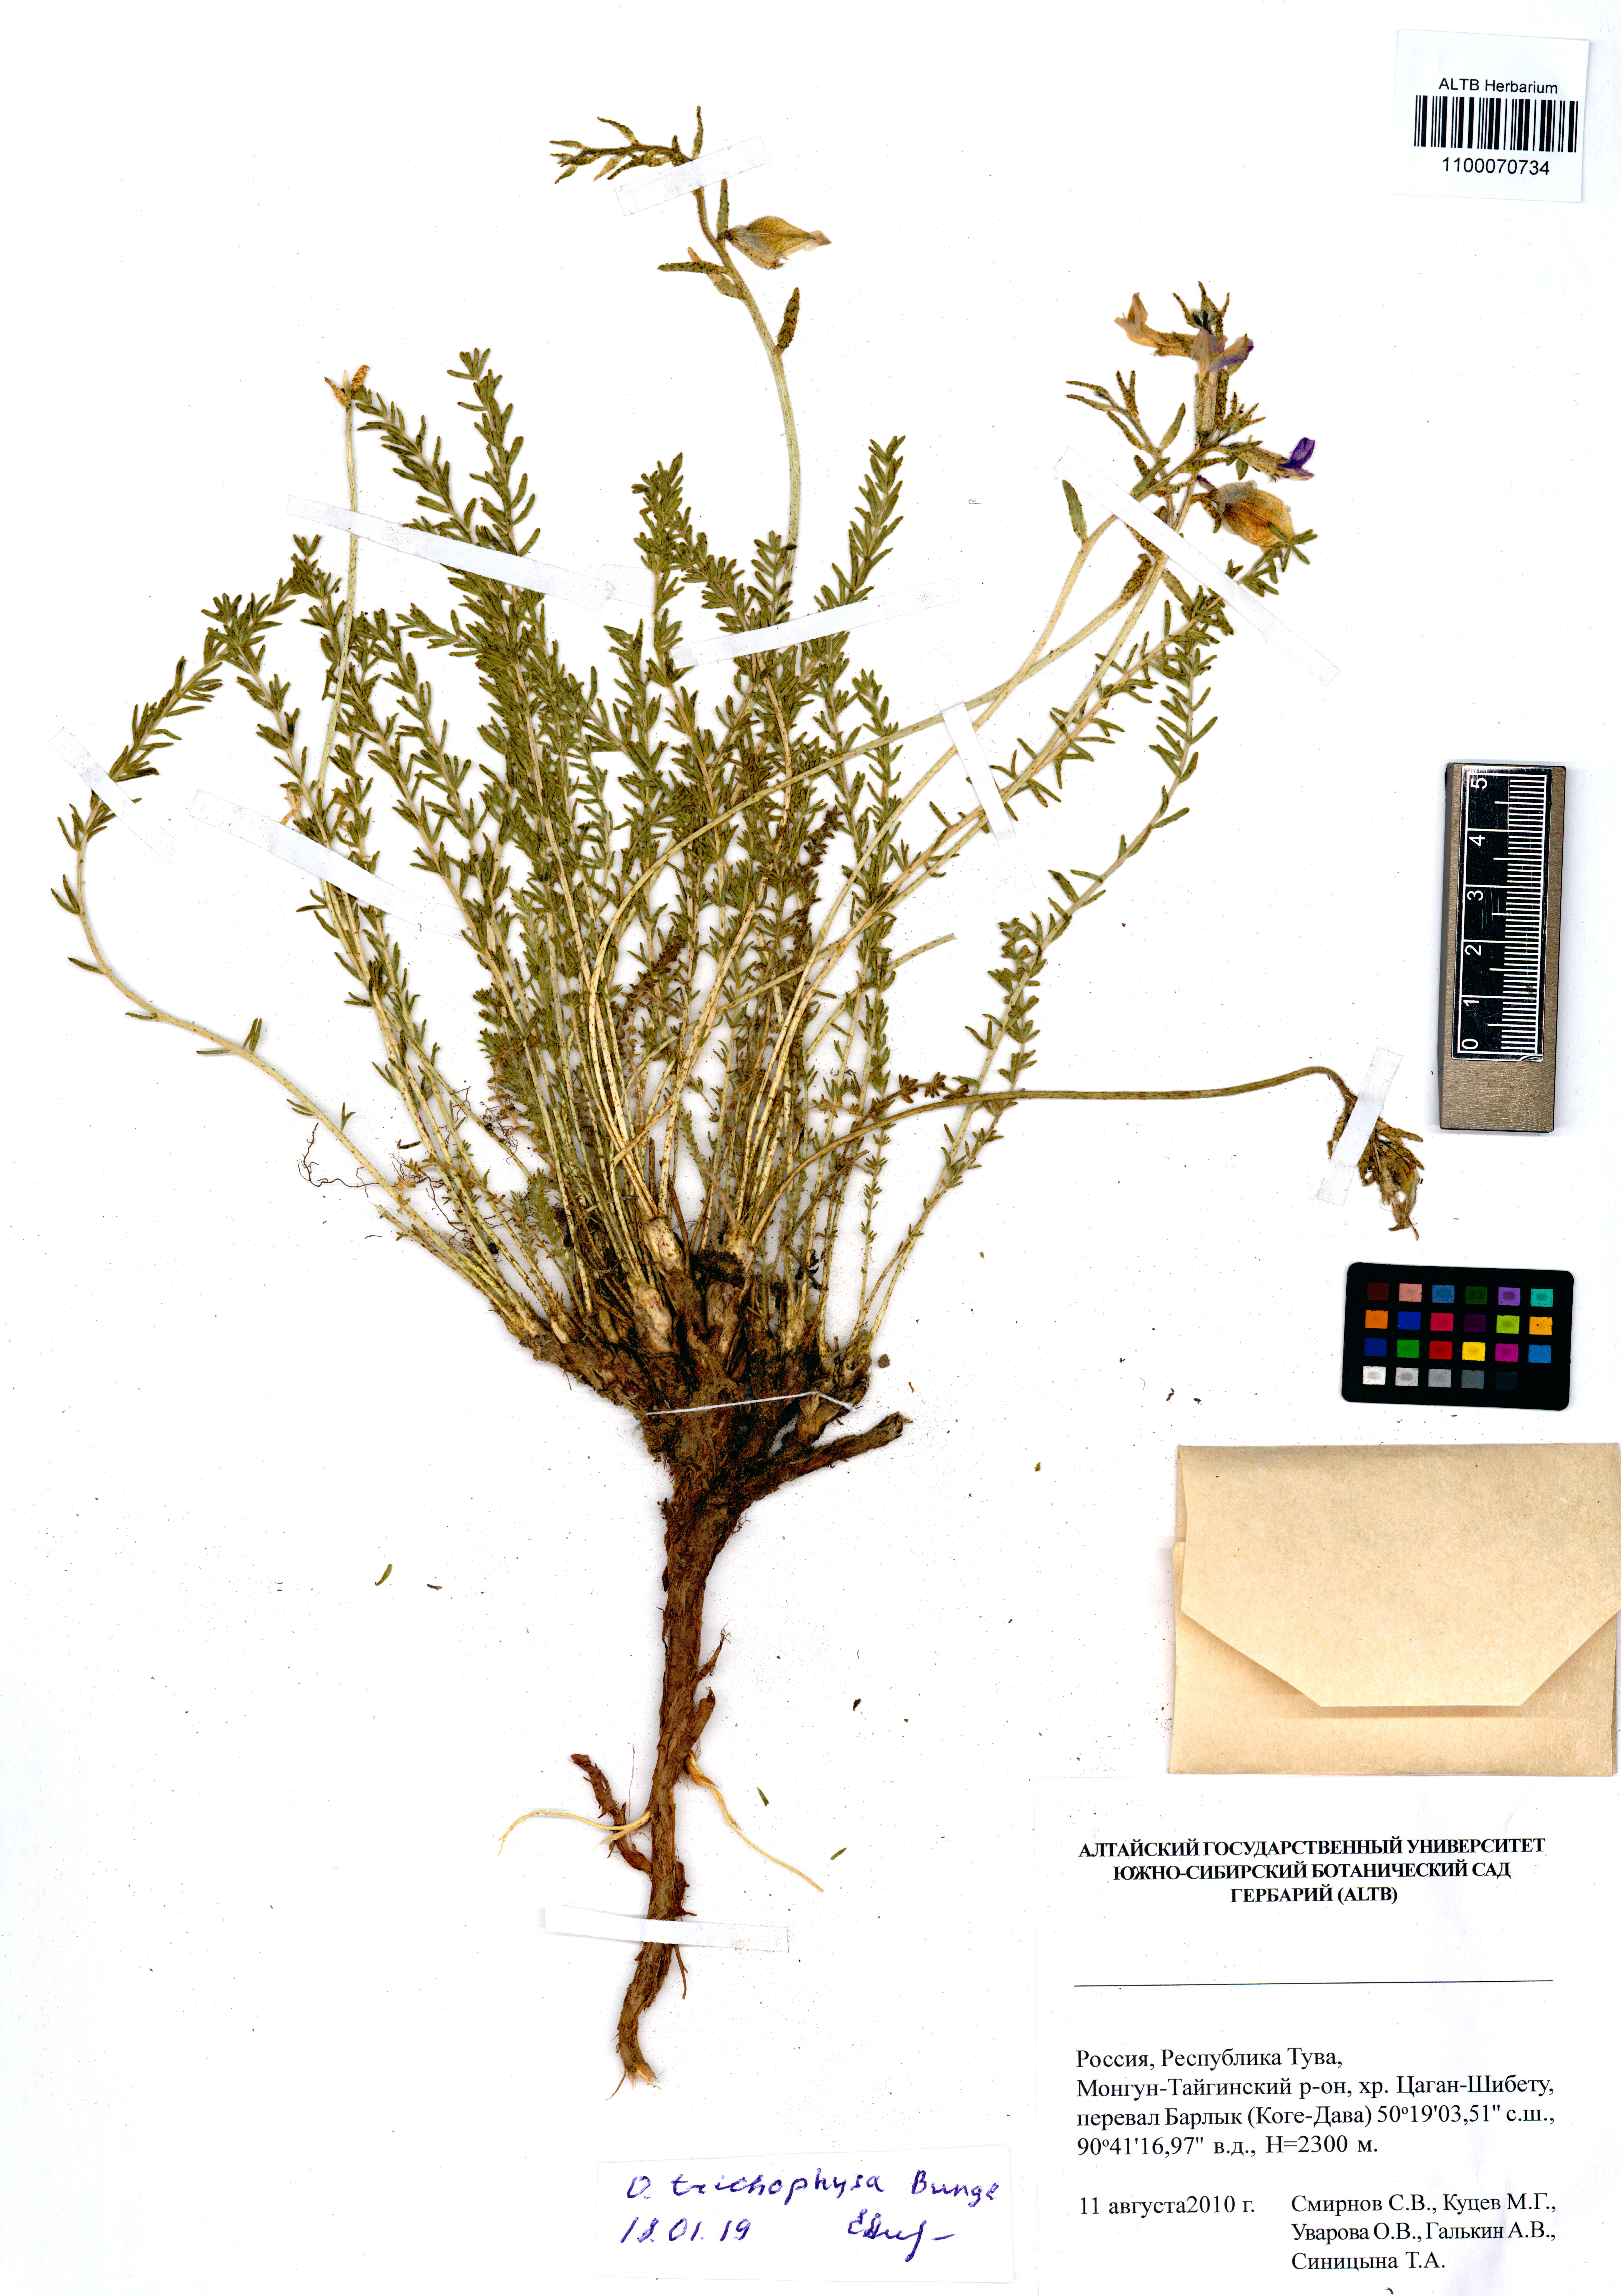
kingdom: Plantae
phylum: Tracheophyta
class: Magnoliopsida
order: Fabales
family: Fabaceae
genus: Oxytropis
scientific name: Oxytropis trichophysa
